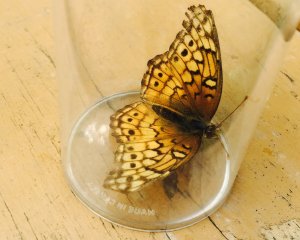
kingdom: Animalia
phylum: Arthropoda
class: Insecta
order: Lepidoptera
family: Nymphalidae
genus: Euptoieta
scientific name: Euptoieta claudia
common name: Variegated Fritillary
